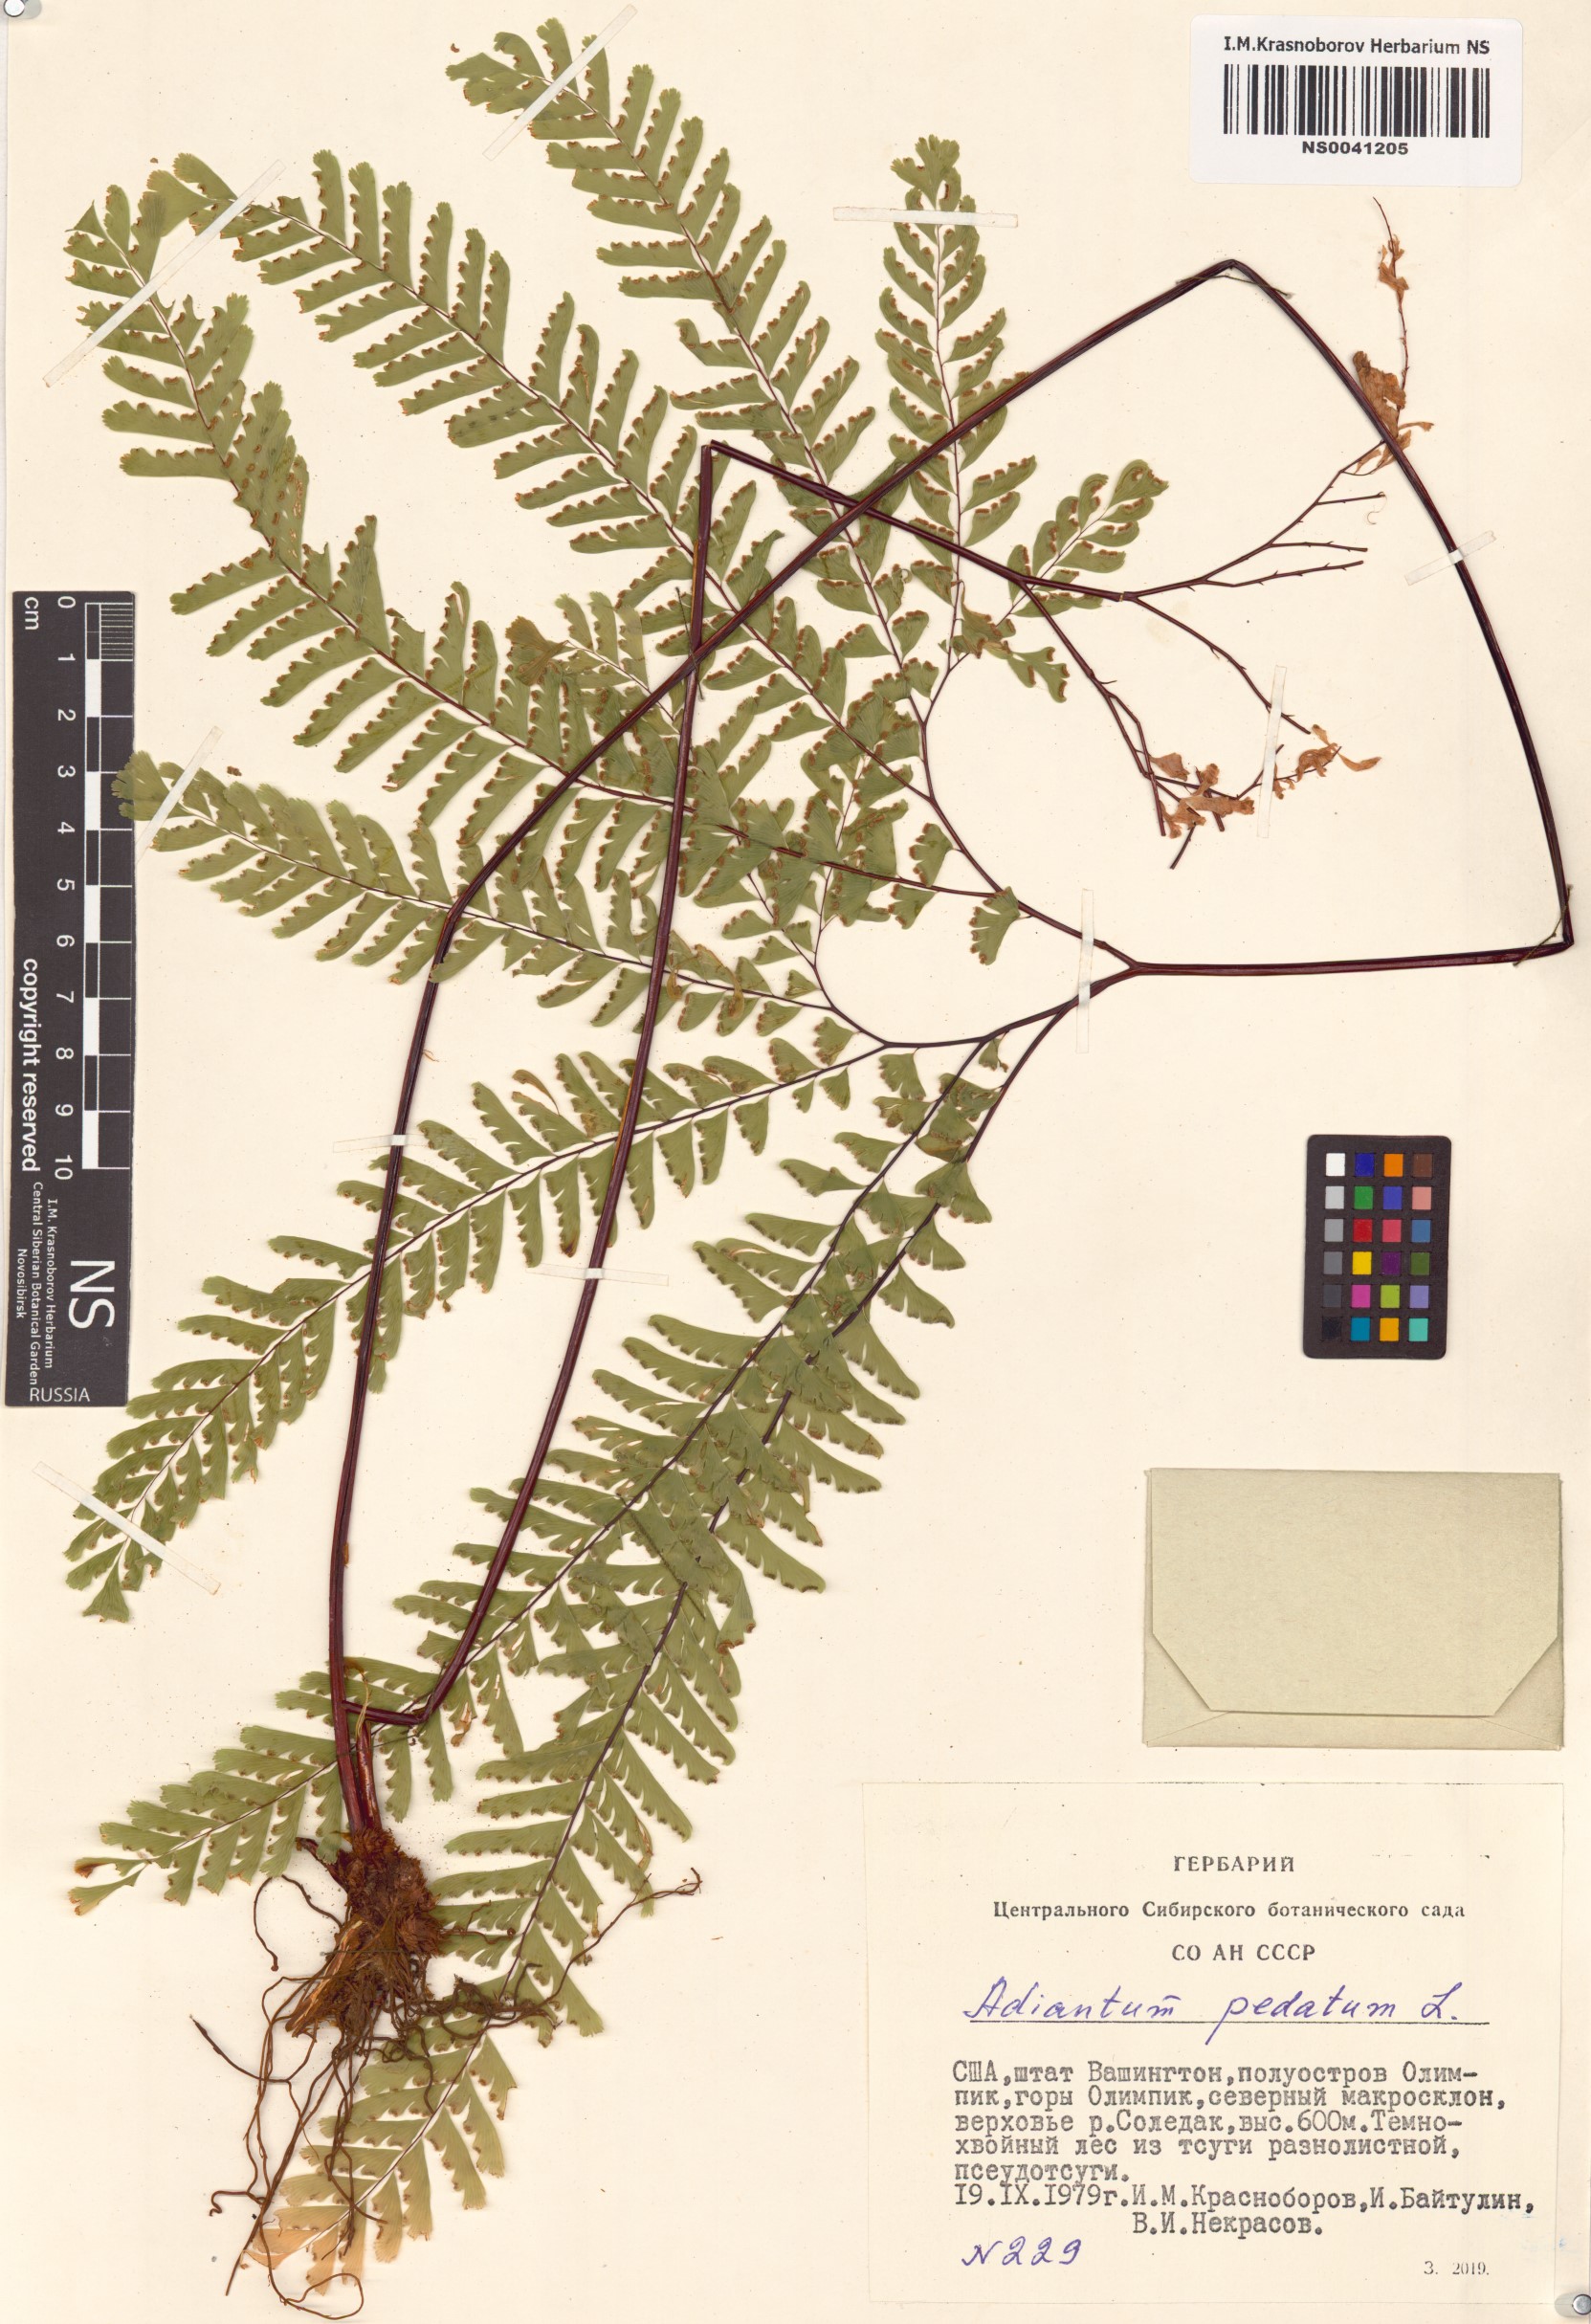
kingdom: Plantae
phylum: Tracheophyta
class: Polypodiopsida
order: Polypodiales
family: Pteridaceae
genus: Adiantum
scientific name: Adiantum pedatum
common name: Five-finger fern
